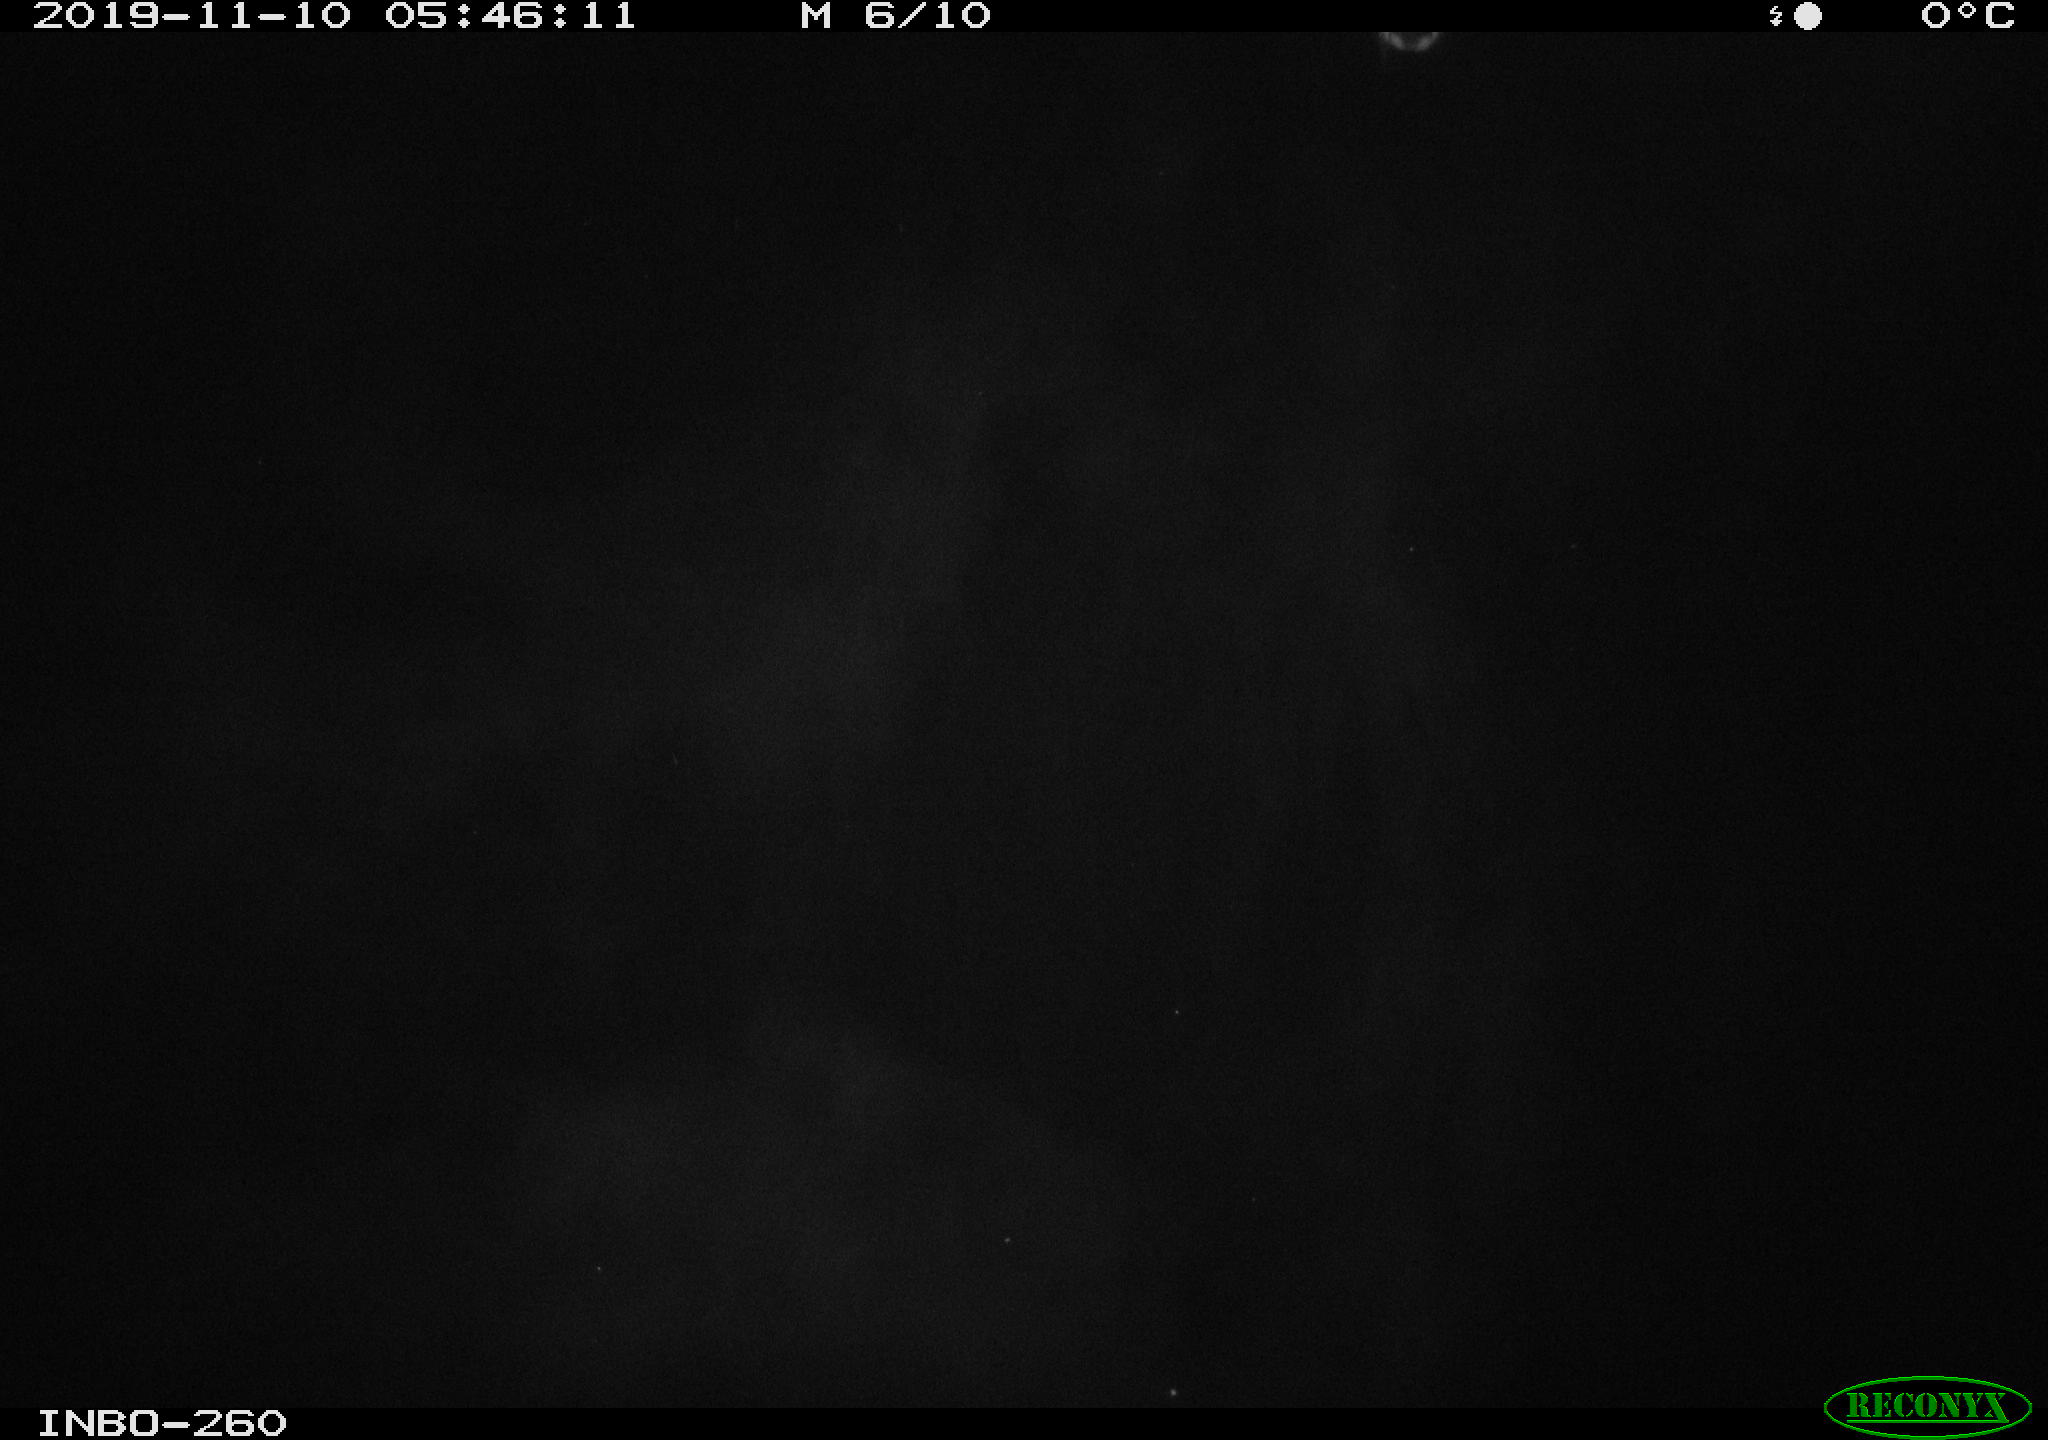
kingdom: Animalia
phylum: Chordata
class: Aves
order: Anseriformes
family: Anatidae
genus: Anas
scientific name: Anas platyrhynchos
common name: Mallard
